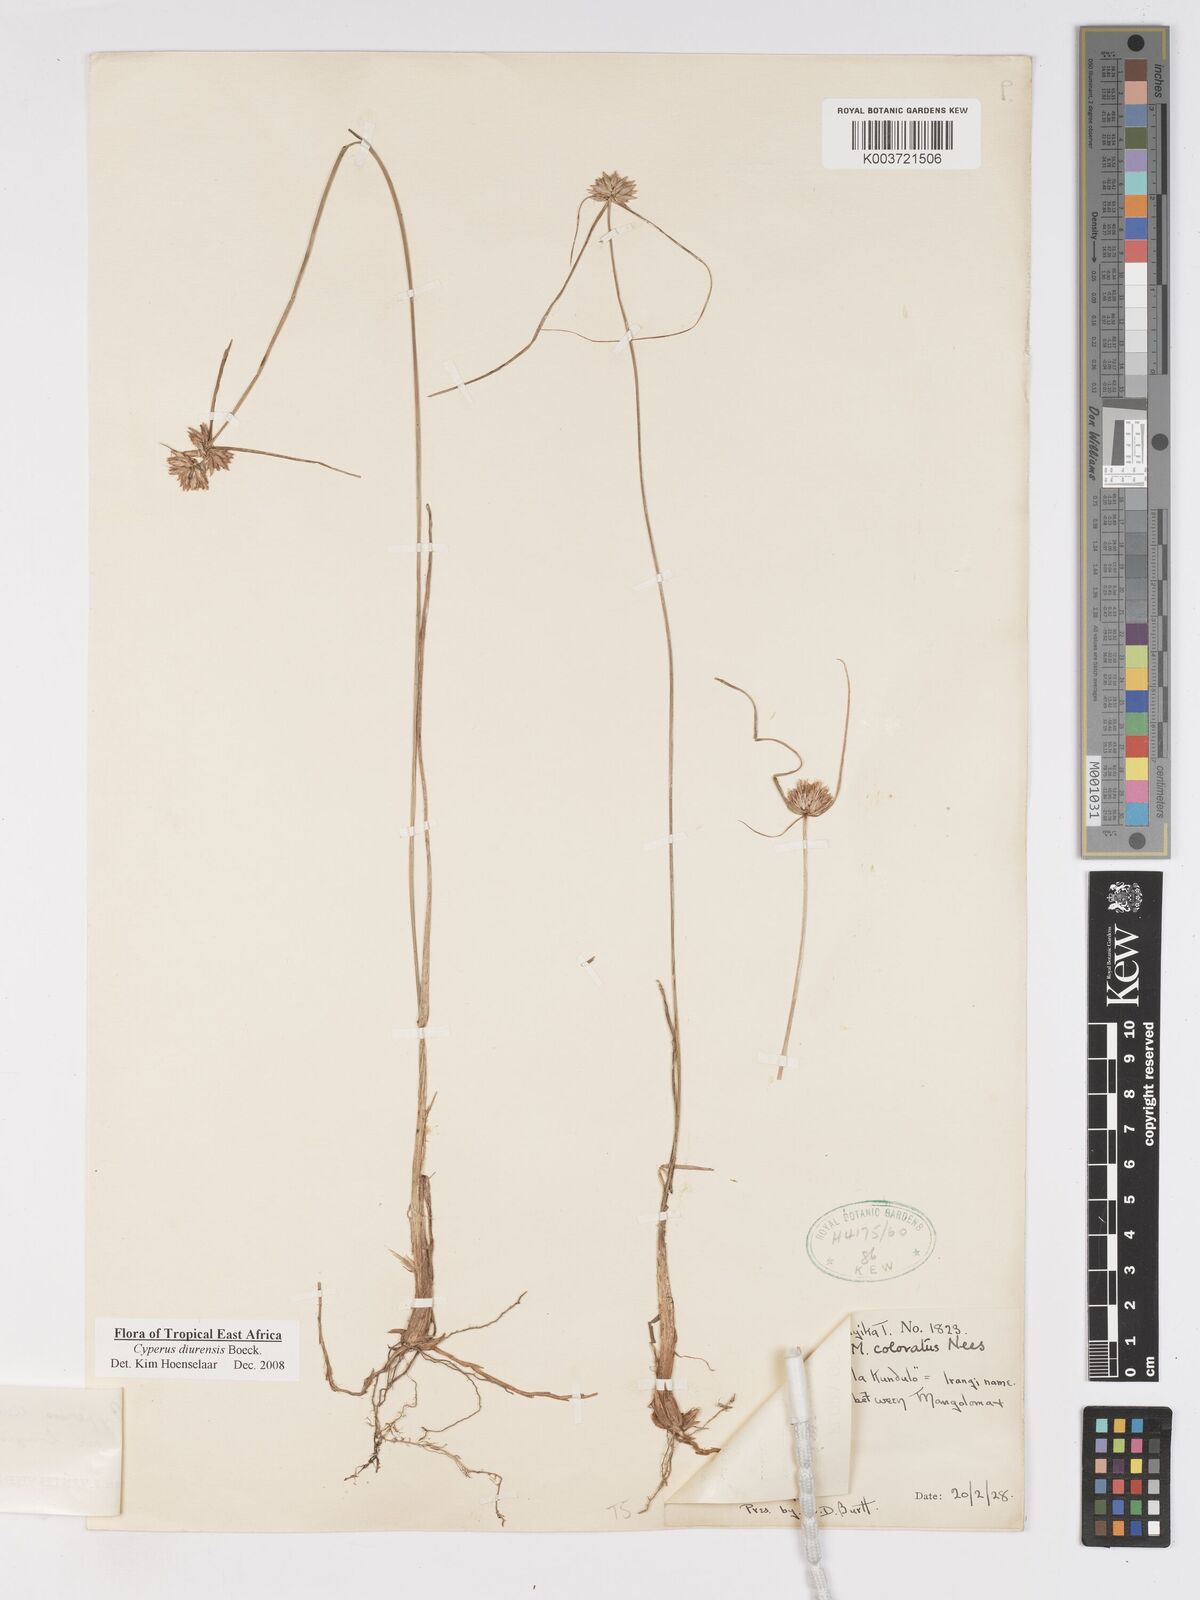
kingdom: Plantae
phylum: Tracheophyta
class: Liliopsida
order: Poales
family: Cyperaceae
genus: Cyperus
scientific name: Cyperus diurensis
